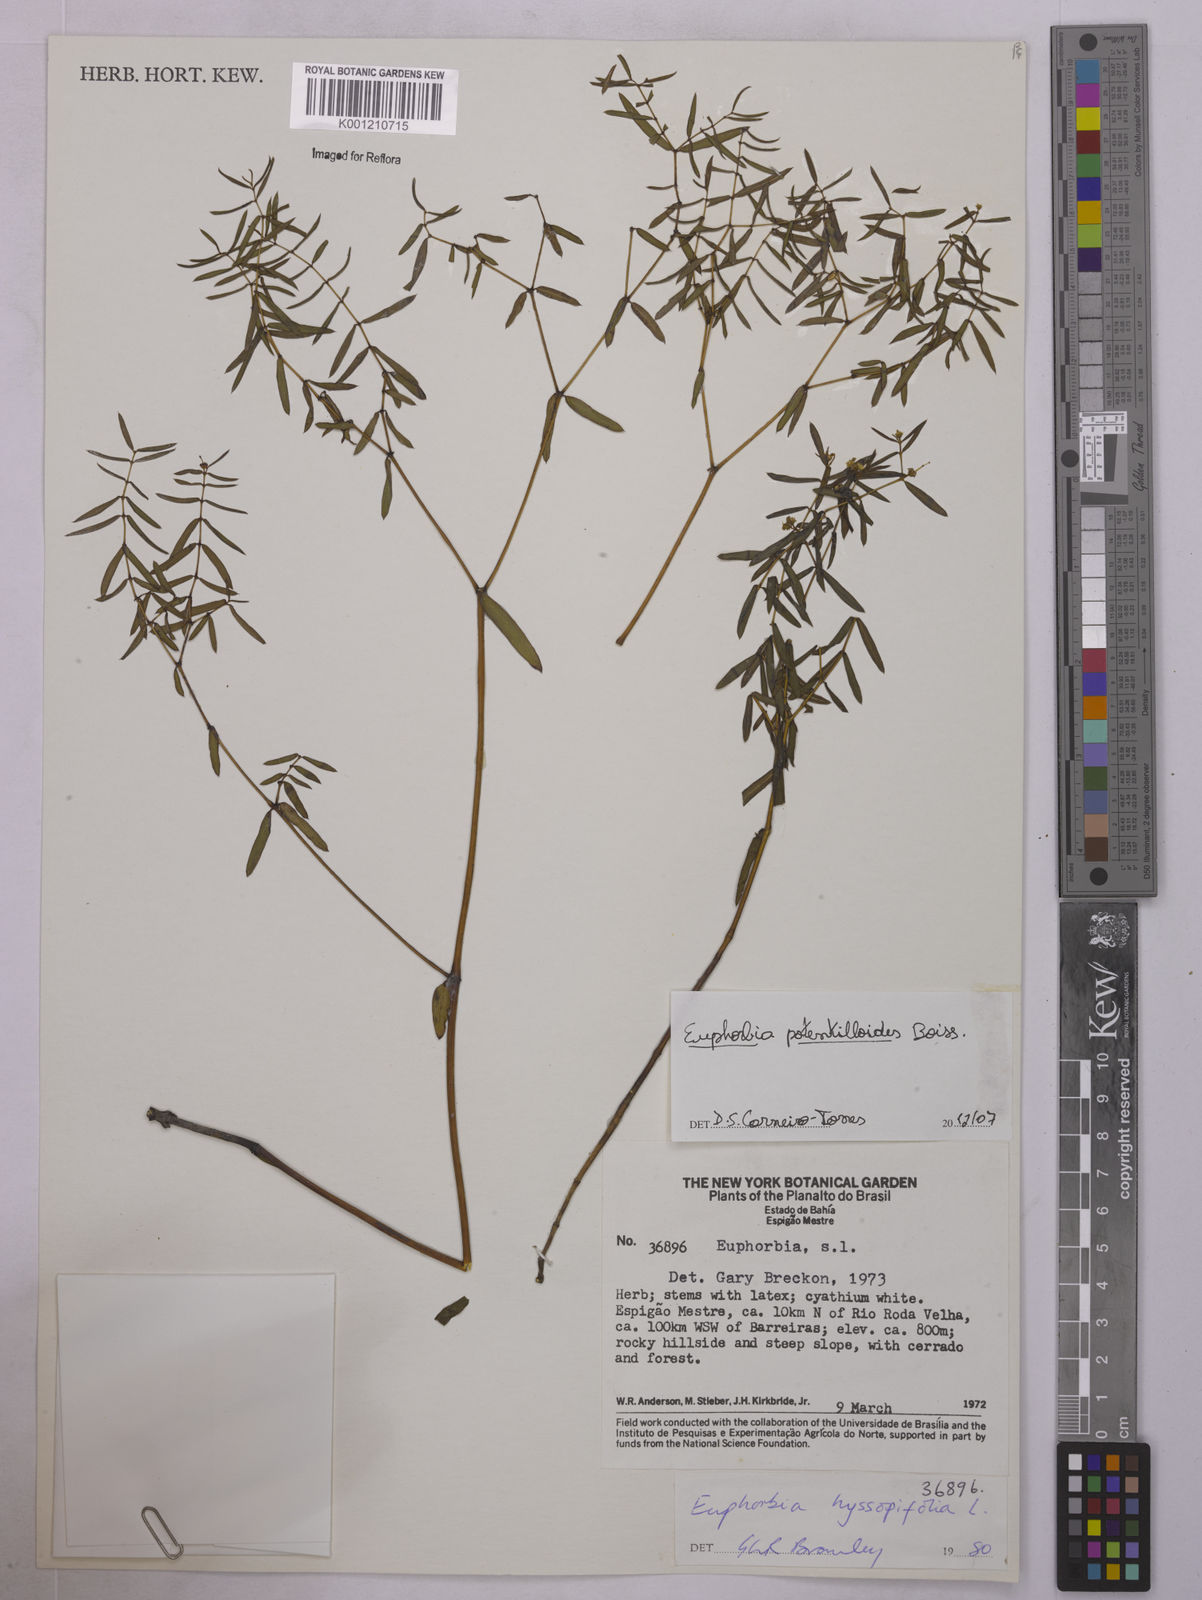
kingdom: Plantae
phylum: Tracheophyta
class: Magnoliopsida
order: Malpighiales
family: Euphorbiaceae
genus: Euphorbia
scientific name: Euphorbia potentilloides
